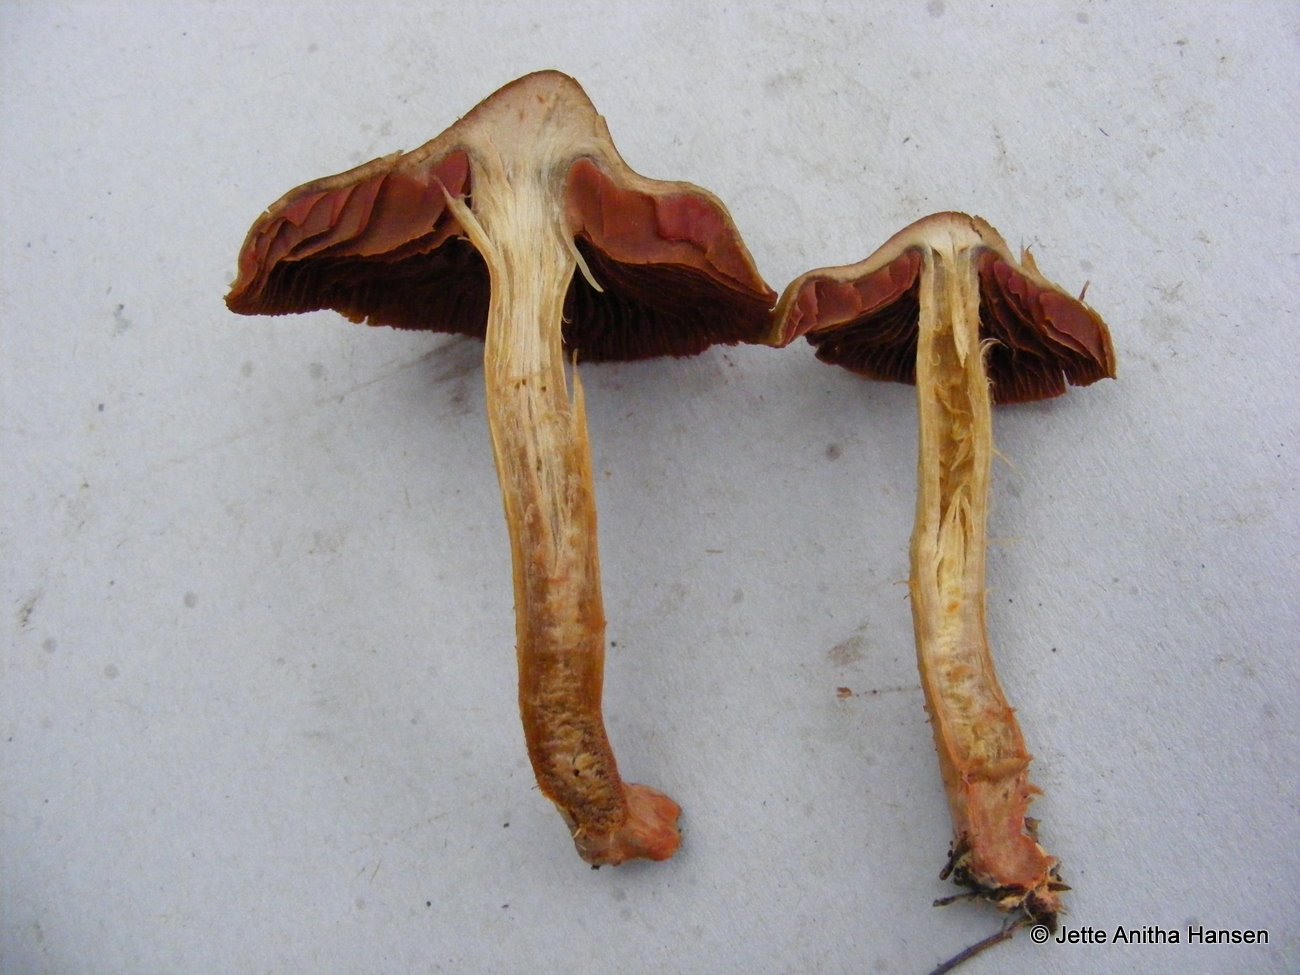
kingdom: Fungi
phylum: Basidiomycota
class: Agaricomycetes
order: Agaricales
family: Cortinariaceae
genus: Cortinarius
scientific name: Cortinarius
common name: cinnoberbladet slørhat
